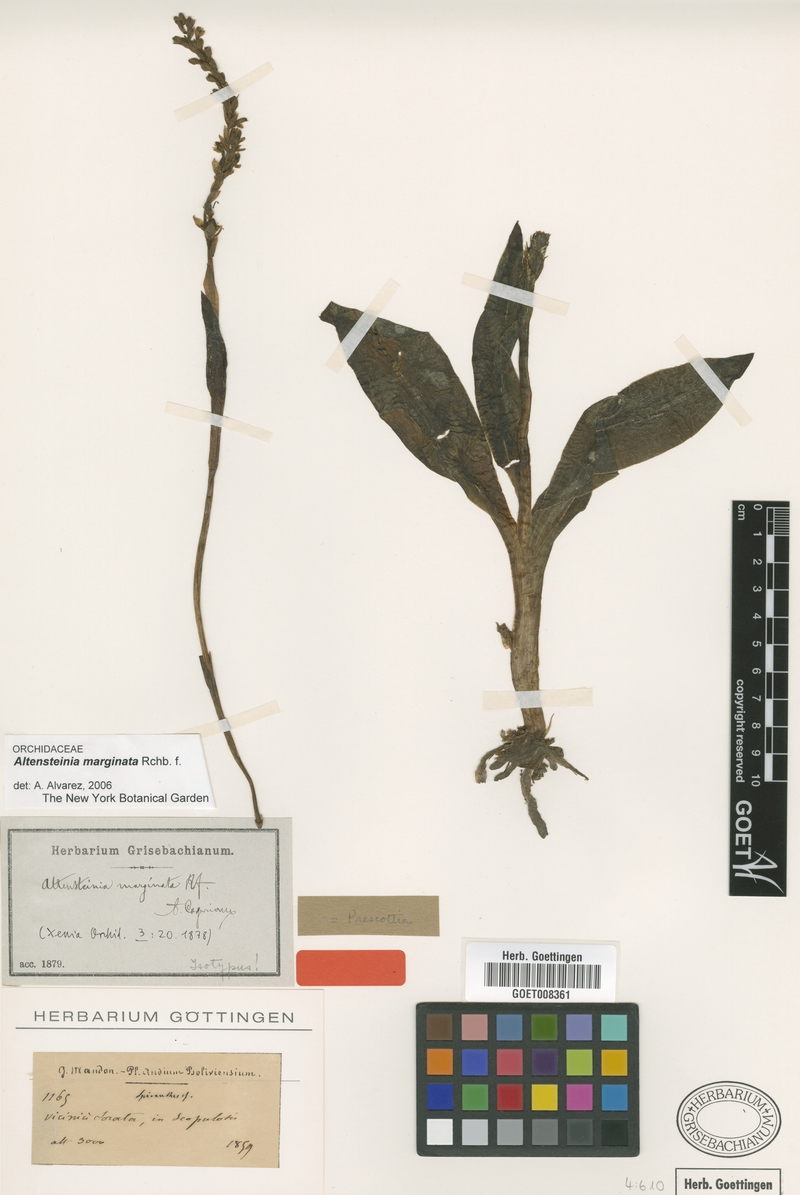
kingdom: Plantae
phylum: Tracheophyta
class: Liliopsida
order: Asparagales
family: Orchidaceae
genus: Altensteinia
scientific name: Altensteinia marginata
